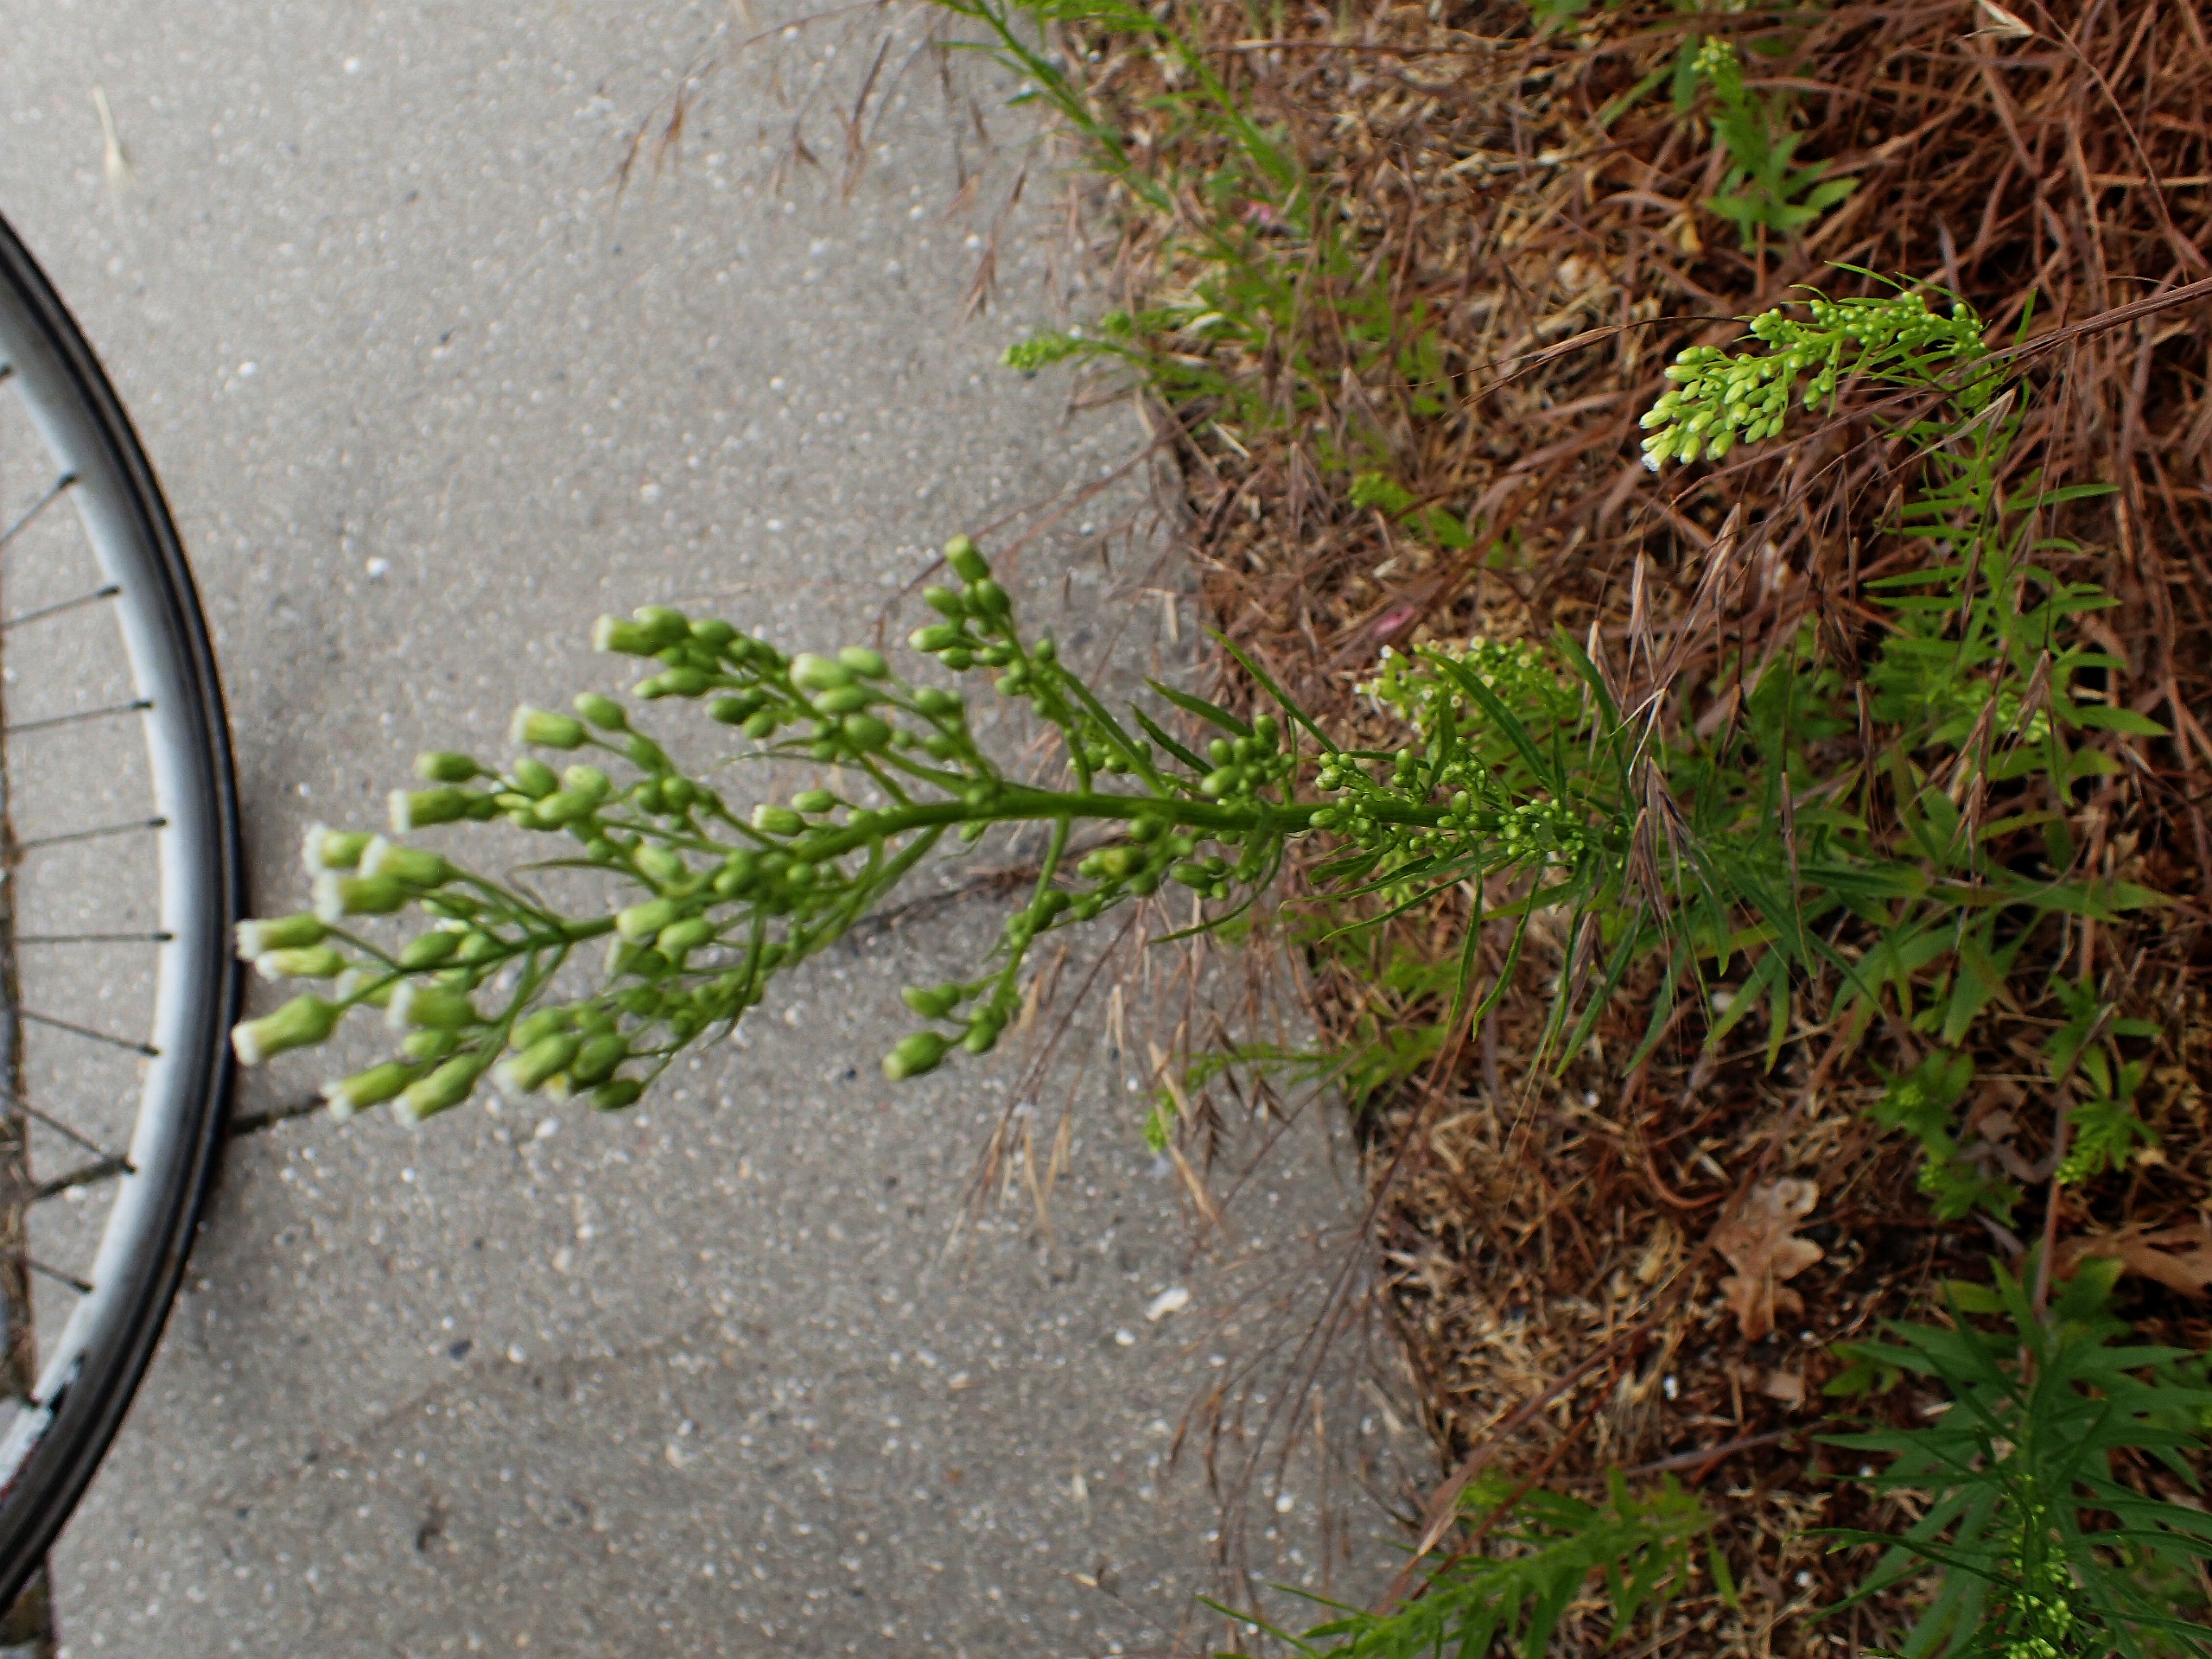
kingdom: Plantae
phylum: Tracheophyta
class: Magnoliopsida
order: Asterales
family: Asteraceae
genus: Erigeron
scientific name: Erigeron canadensis
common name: Kanadisk bakkestjerne
